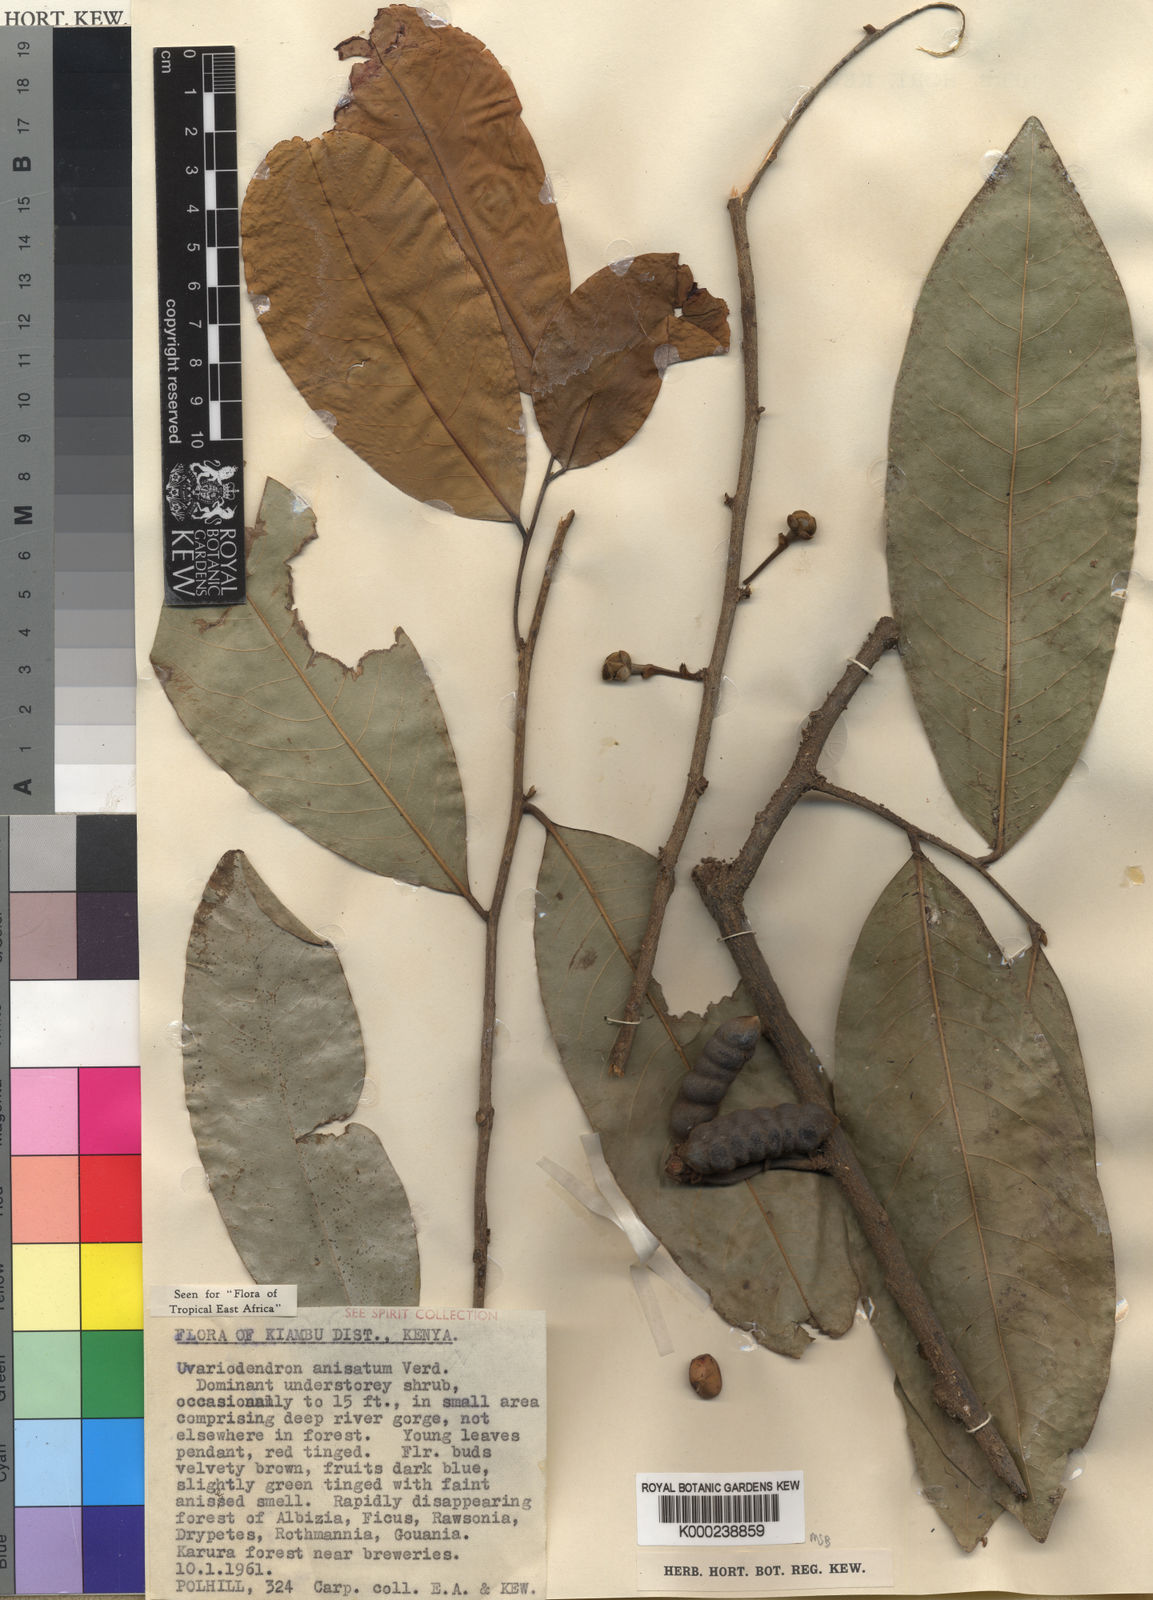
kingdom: Plantae
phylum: Tracheophyta
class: Magnoliopsida
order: Magnoliales
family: Annonaceae
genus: Uvariodendron
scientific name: Uvariodendron anisatum
